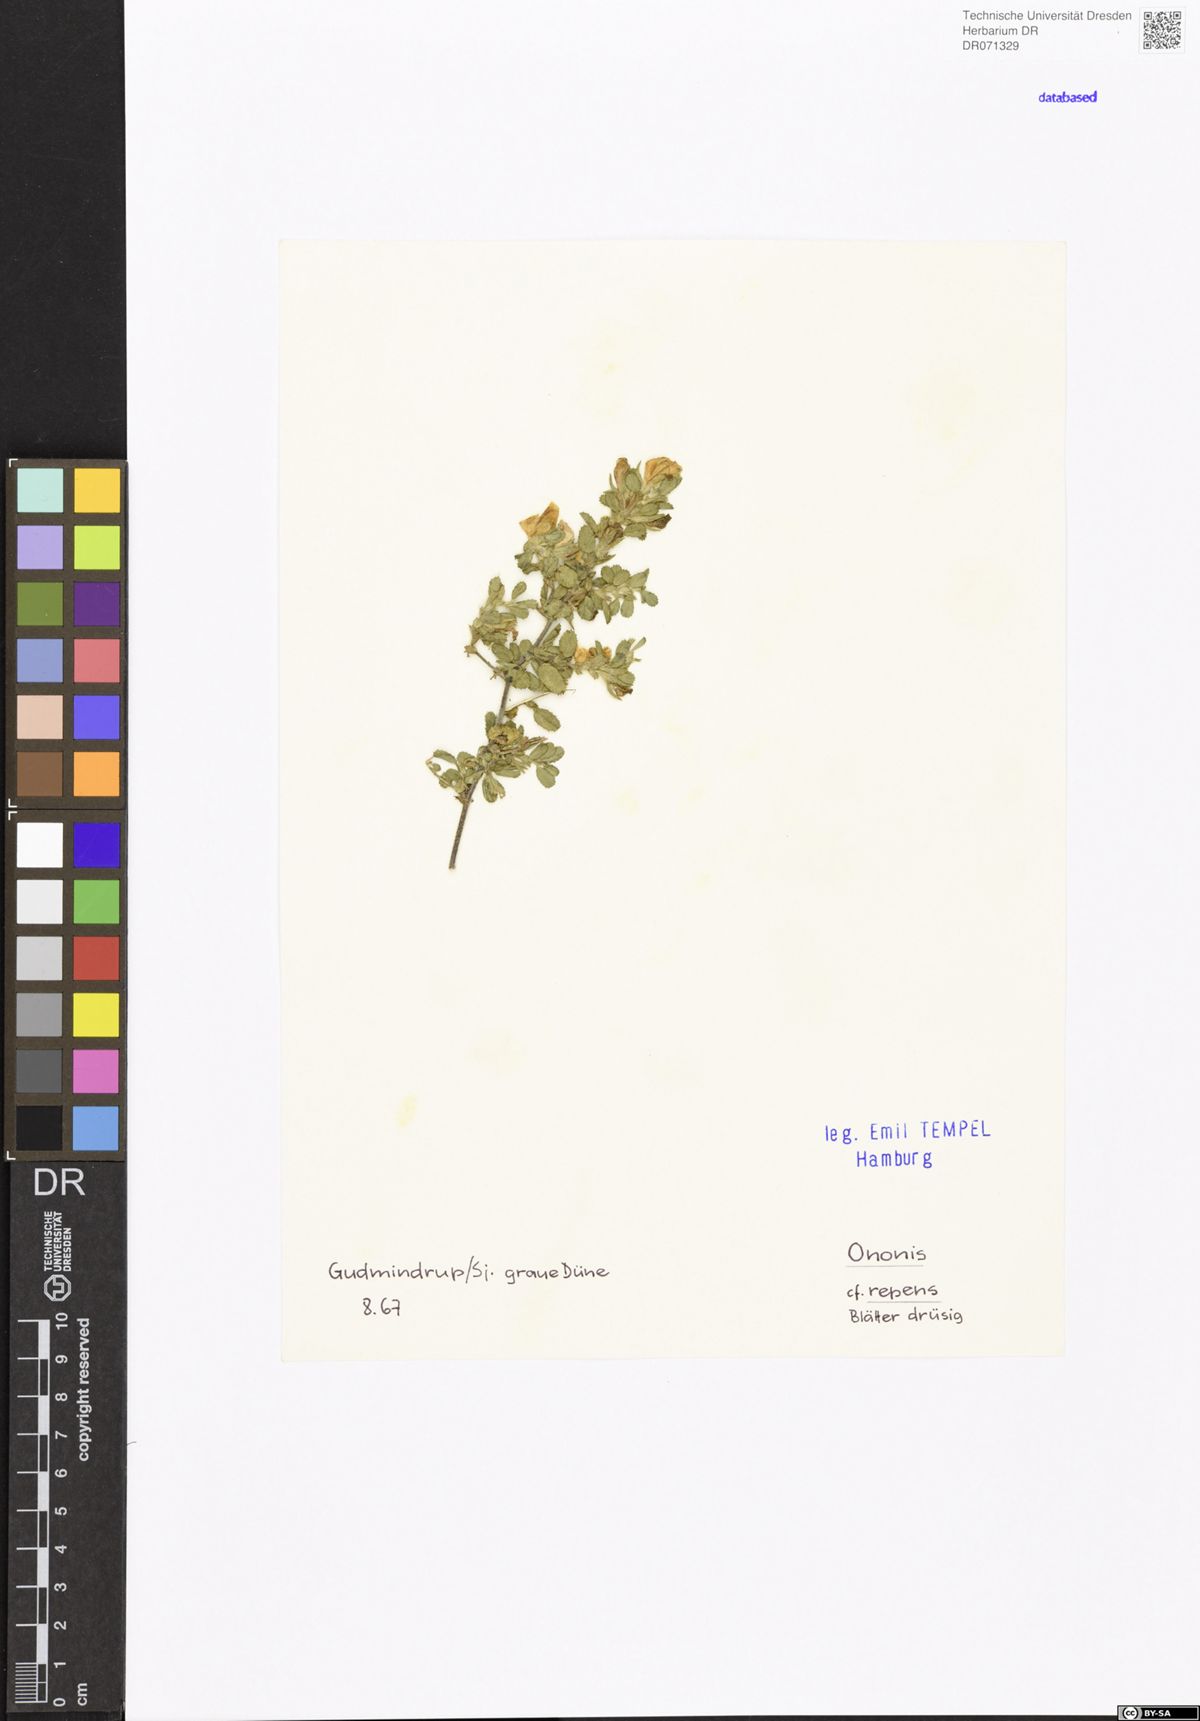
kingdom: Plantae
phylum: Tracheophyta
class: Magnoliopsida
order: Fabales
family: Fabaceae
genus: Ononis
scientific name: Ononis spinosa
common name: Spiny restharrow
